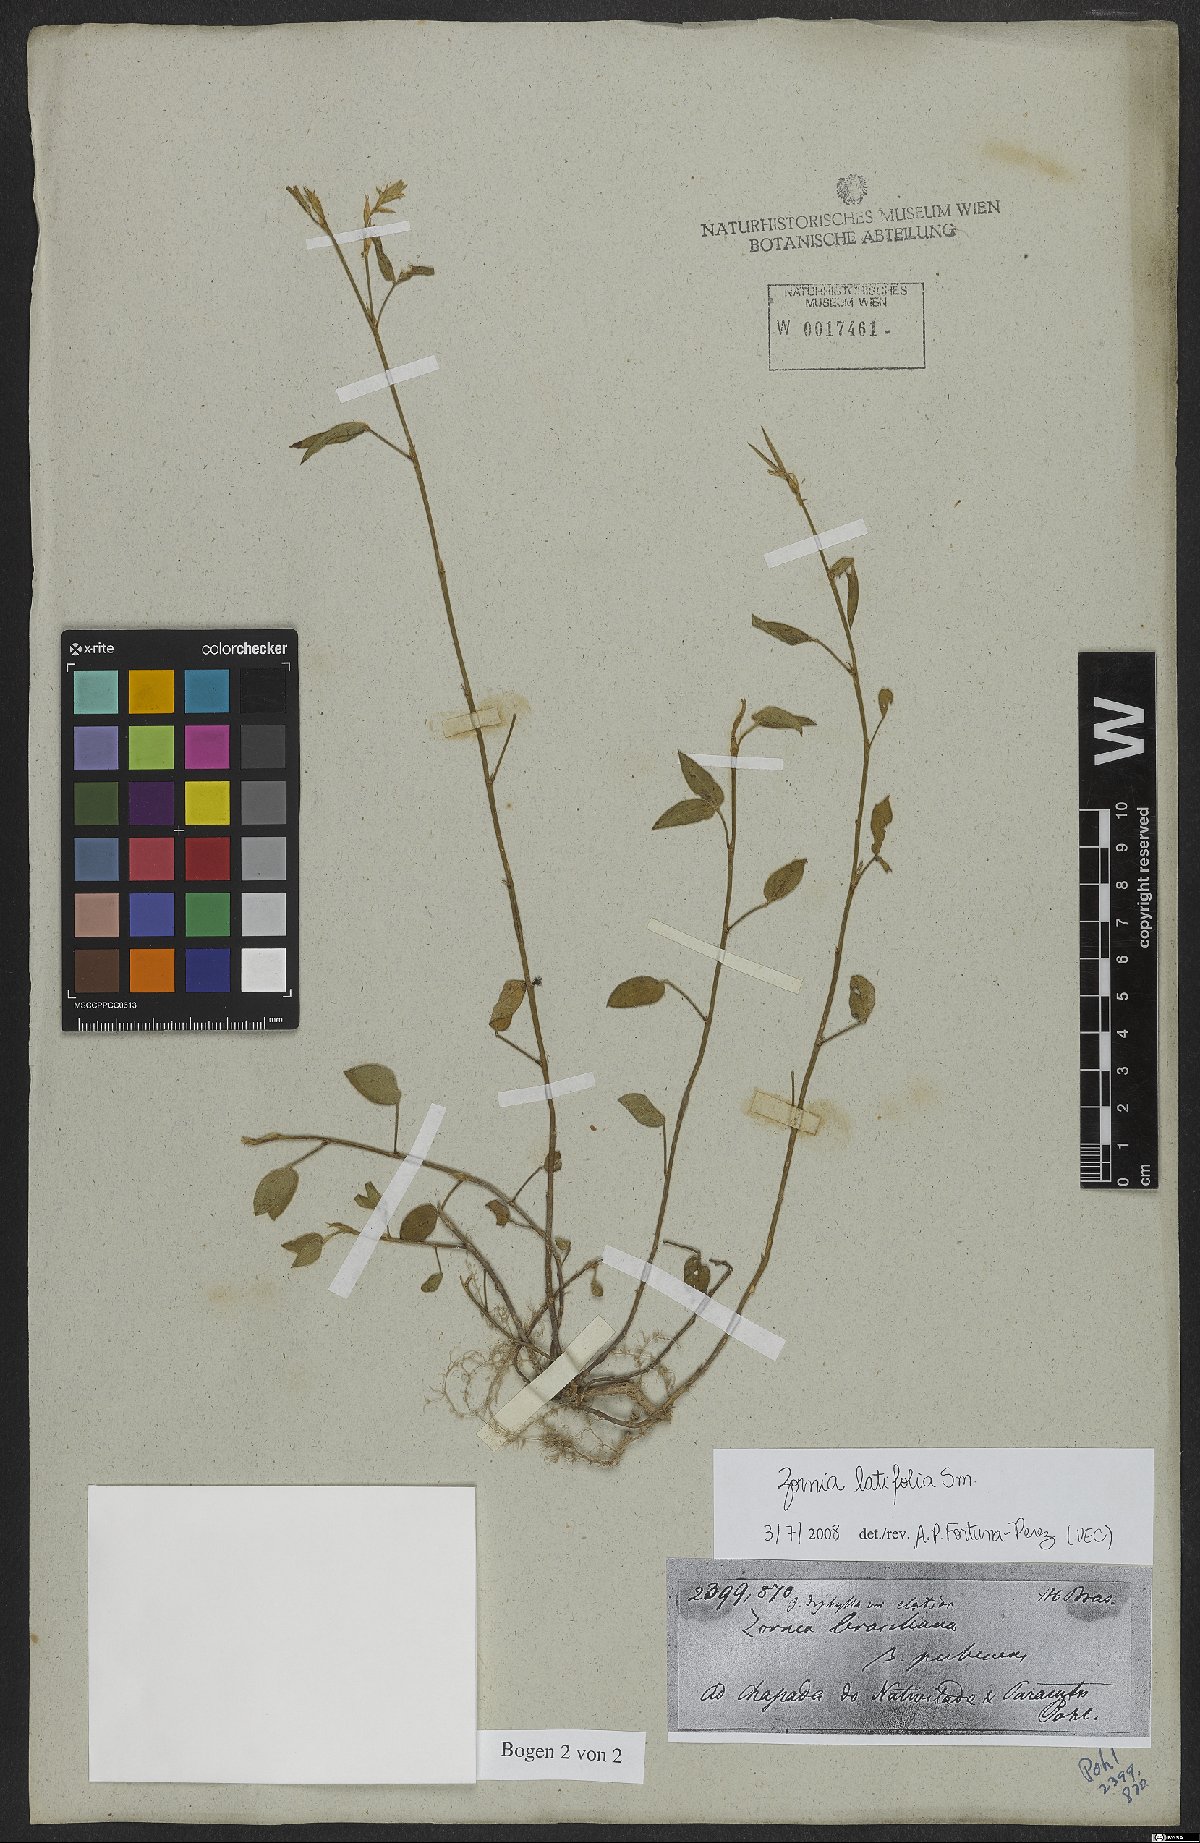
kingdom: Plantae
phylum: Tracheophyta
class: Magnoliopsida
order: Fabales
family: Fabaceae
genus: Zornia
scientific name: Zornia sericea
